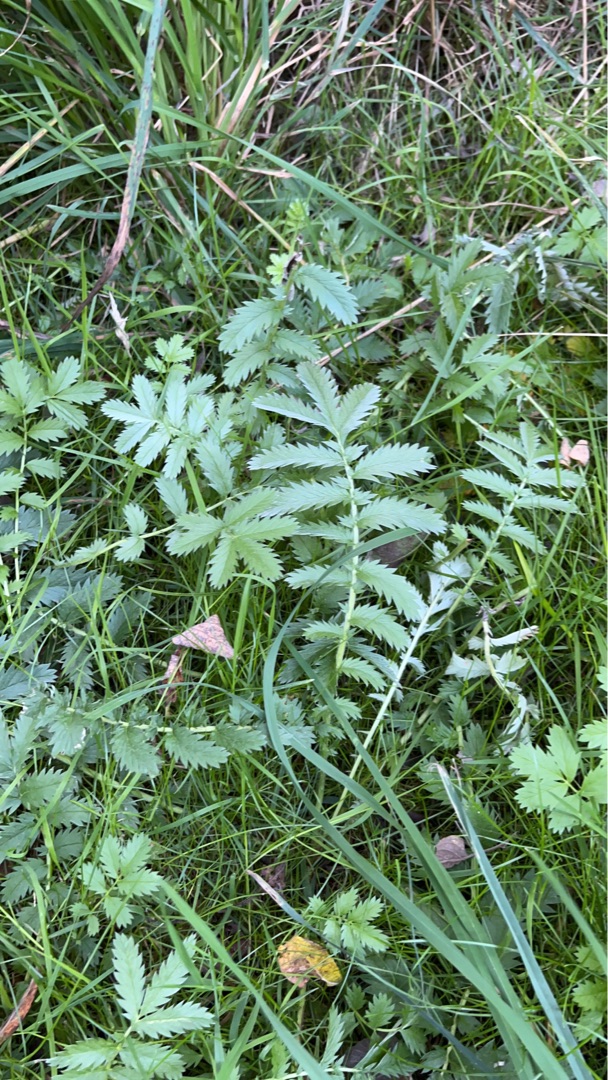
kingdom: Plantae
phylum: Tracheophyta
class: Magnoliopsida
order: Rosales
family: Rosaceae
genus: Argentina
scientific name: Argentina anserina
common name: Gåsepotentil
